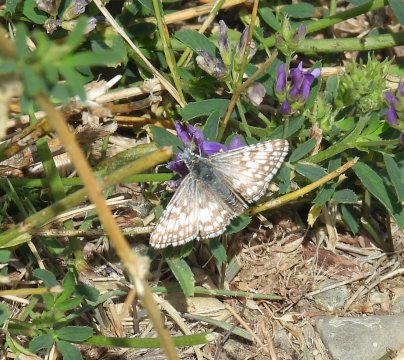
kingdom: Animalia
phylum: Arthropoda
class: Insecta
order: Lepidoptera
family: Hesperiidae
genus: Pyrgus
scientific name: Pyrgus communis
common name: Common Checkered-Skipper
